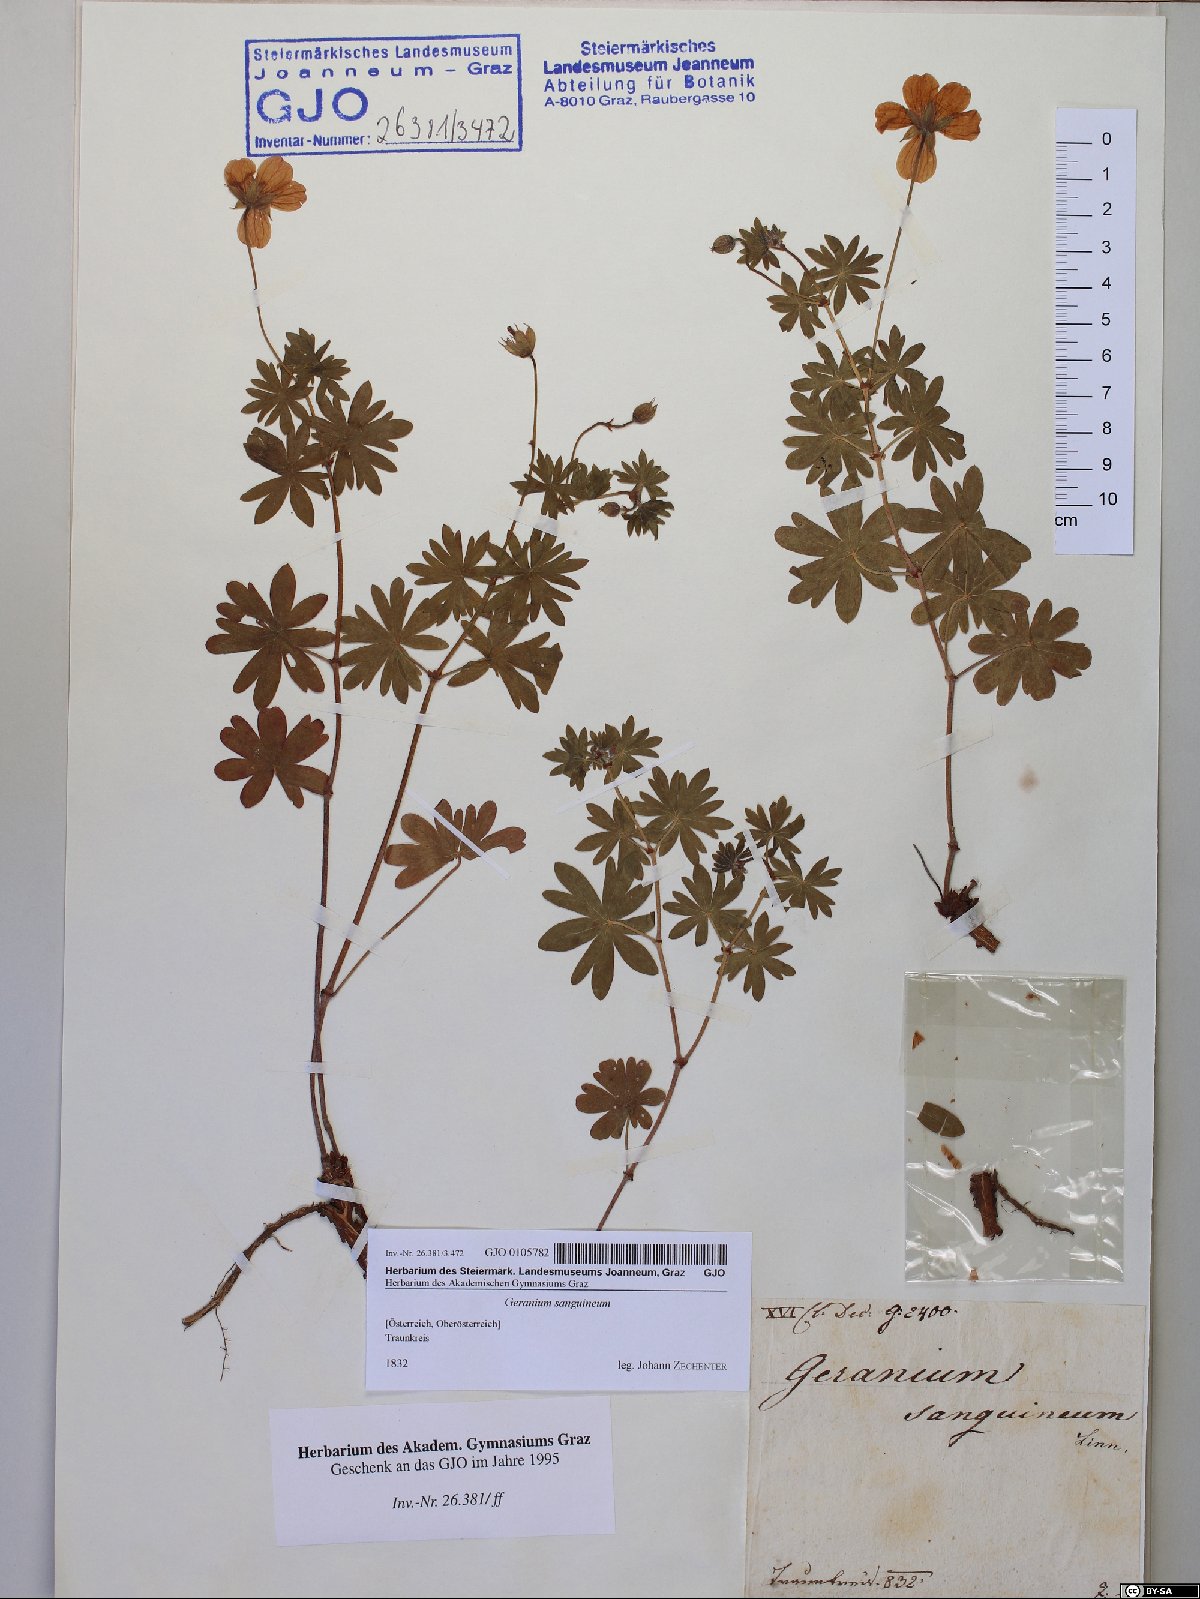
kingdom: Plantae
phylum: Tracheophyta
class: Magnoliopsida
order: Geraniales
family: Geraniaceae
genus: Geranium
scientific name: Geranium sanguineum
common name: Bloody crane's-bill
